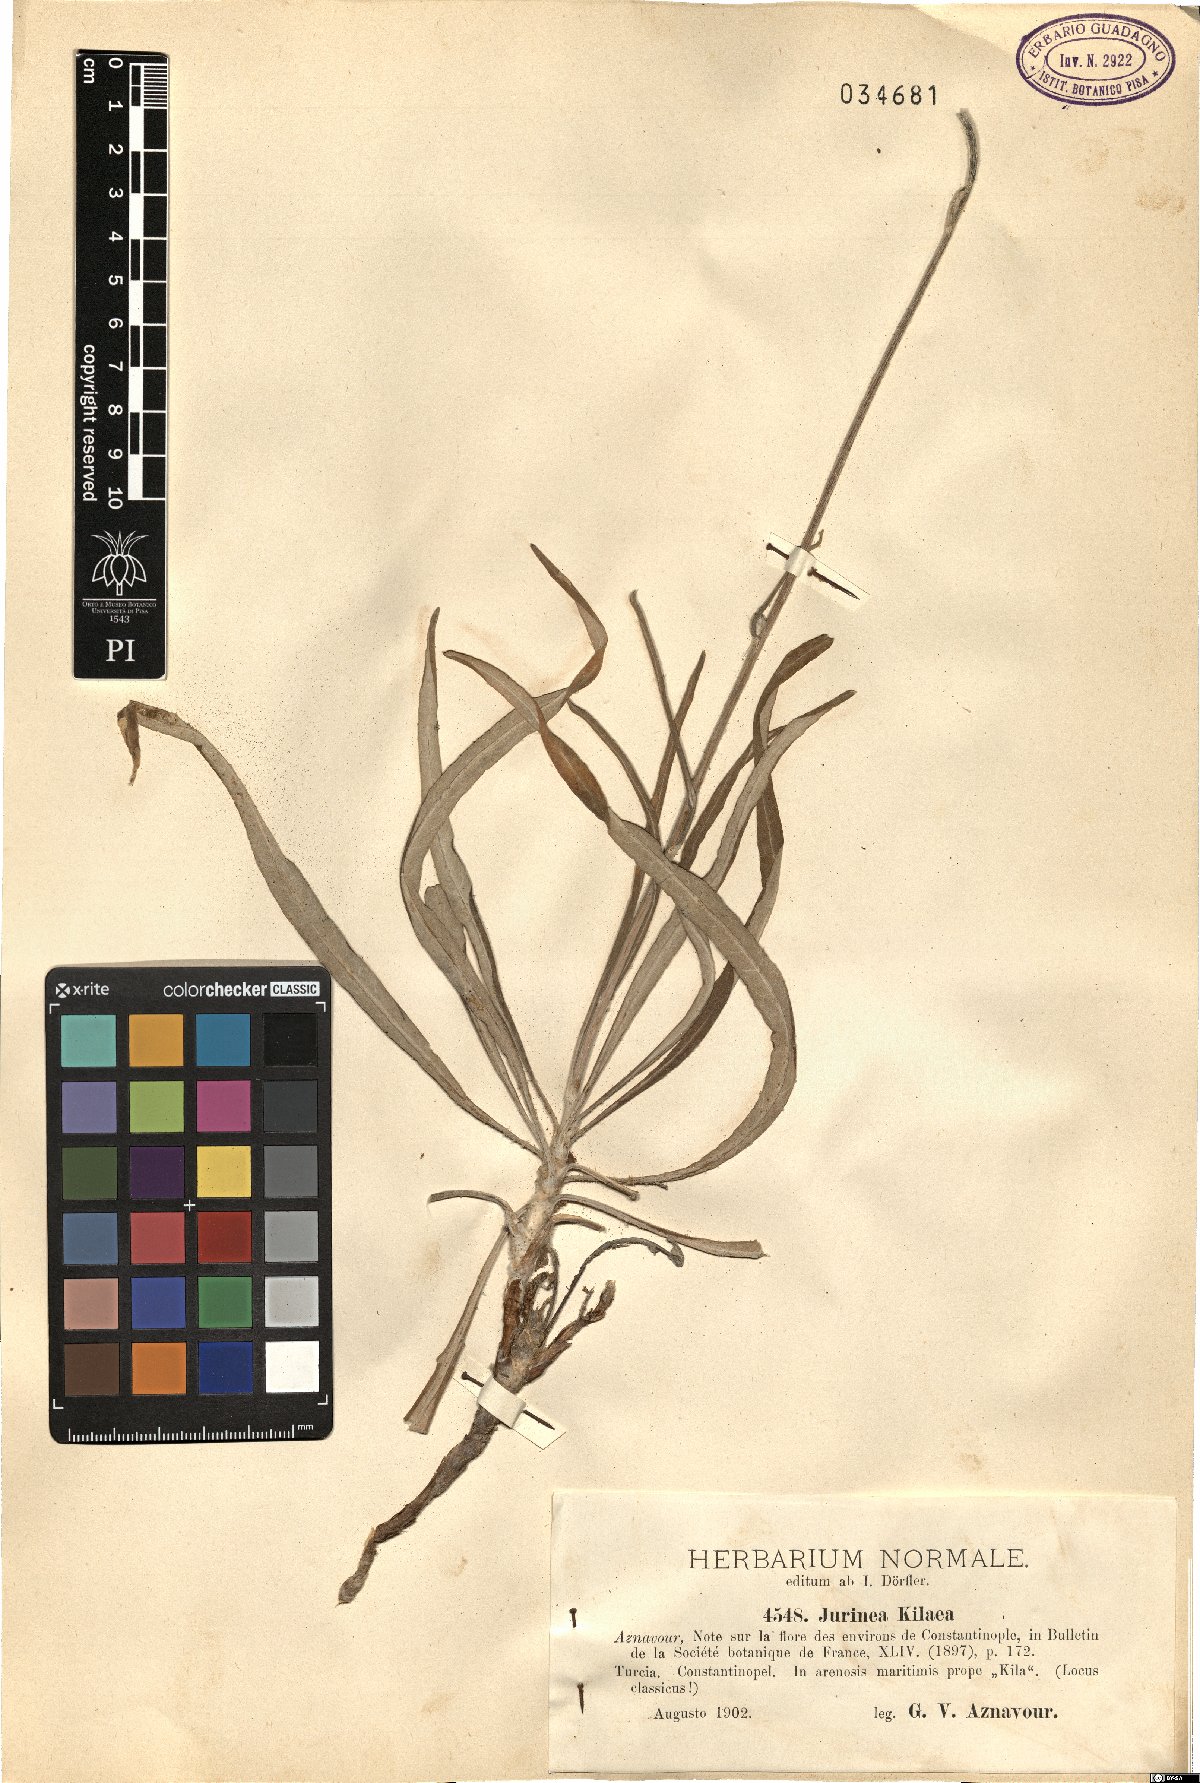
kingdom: Plantae
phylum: Tracheophyta
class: Magnoliopsida
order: Asterales
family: Asteraceae
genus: Jurinea
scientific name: Jurinea kilaea
